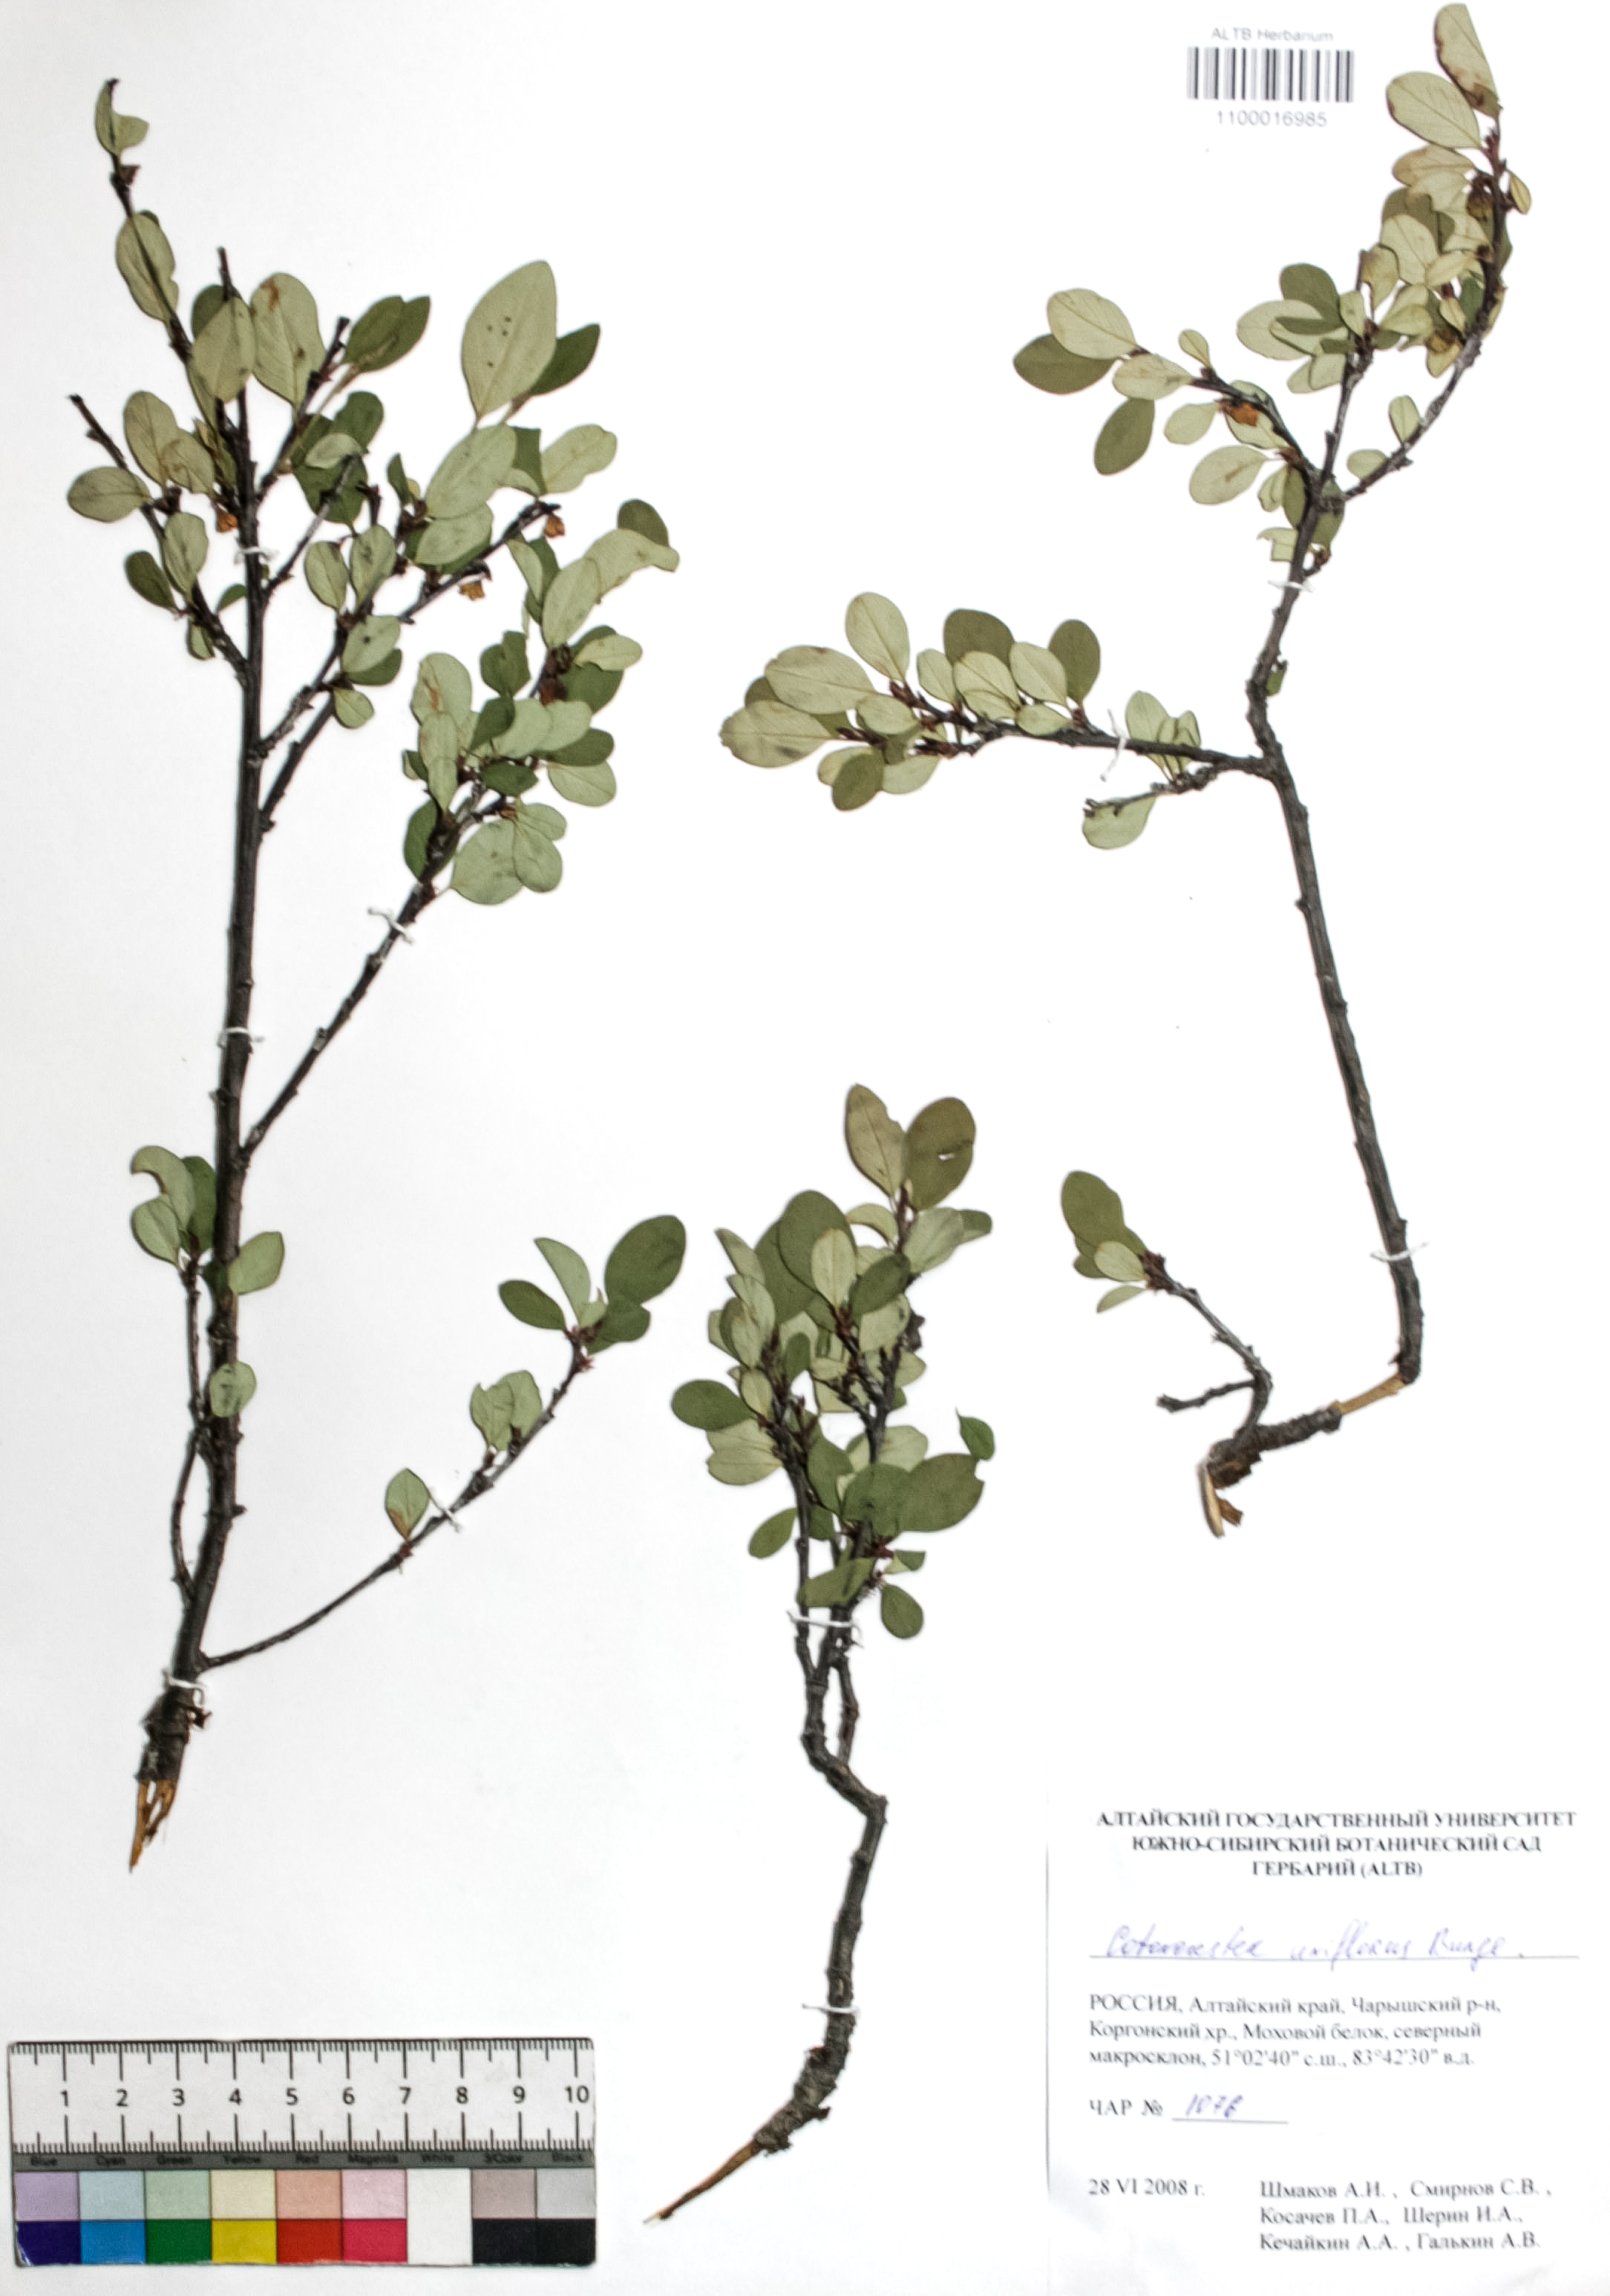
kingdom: Plantae
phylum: Tracheophyta
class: Magnoliopsida
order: Rosales
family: Rosaceae
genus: Cotoneaster
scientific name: Cotoneaster uniflorus
